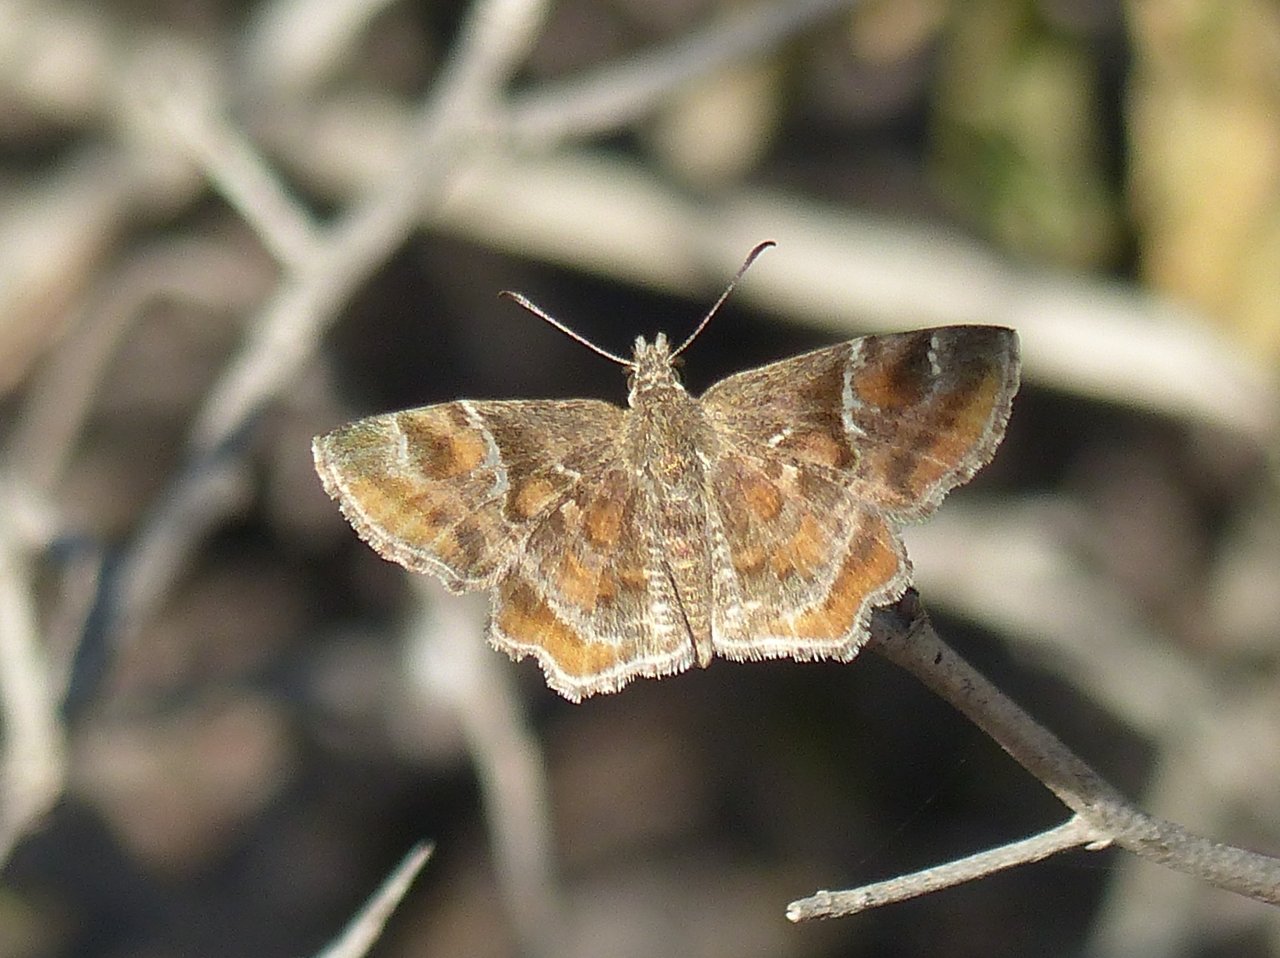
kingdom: Animalia
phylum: Arthropoda
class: Insecta
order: Lepidoptera
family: Hesperiidae
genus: Systasea
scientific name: Systasea pulverulenta
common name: Texas Powdered-Skipper
